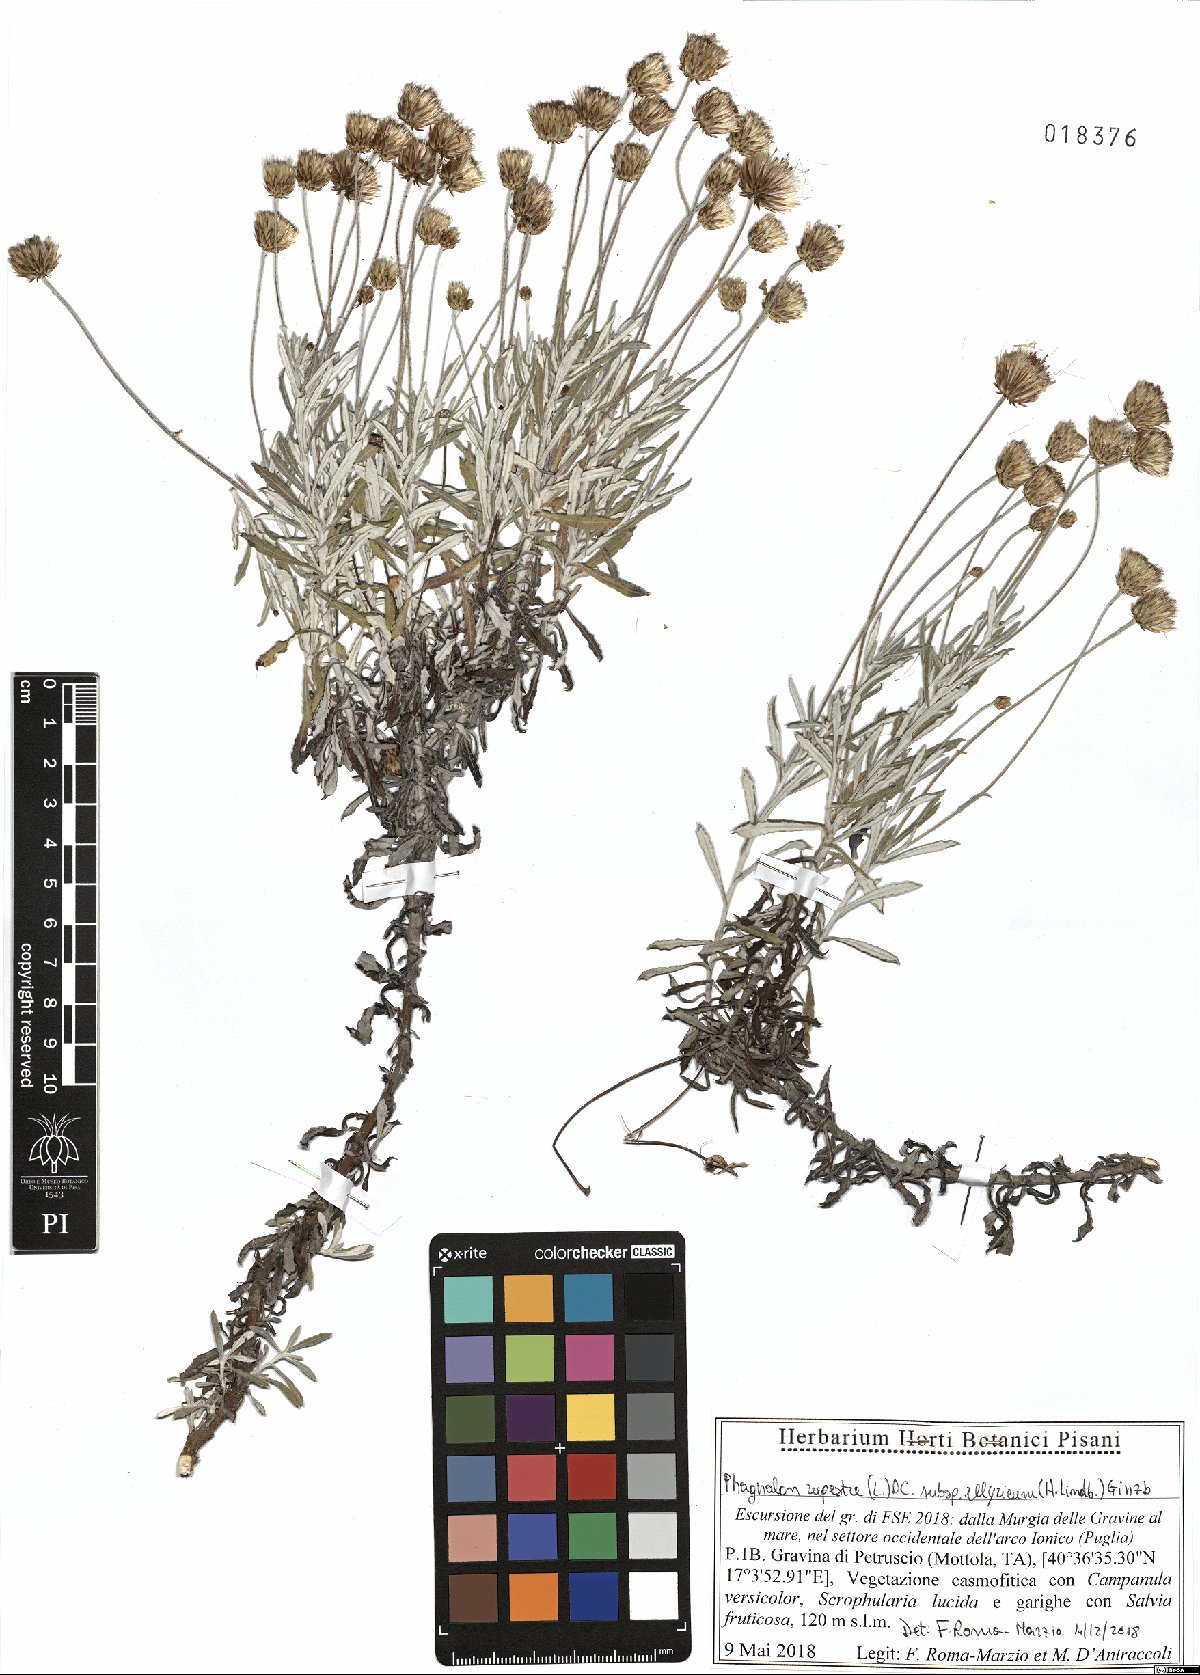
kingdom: Plantae
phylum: Tracheophyta
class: Magnoliopsida
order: Asterales
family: Asteraceae
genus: Phagnalon
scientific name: Phagnalon rupestre
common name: Rock phagnalon
